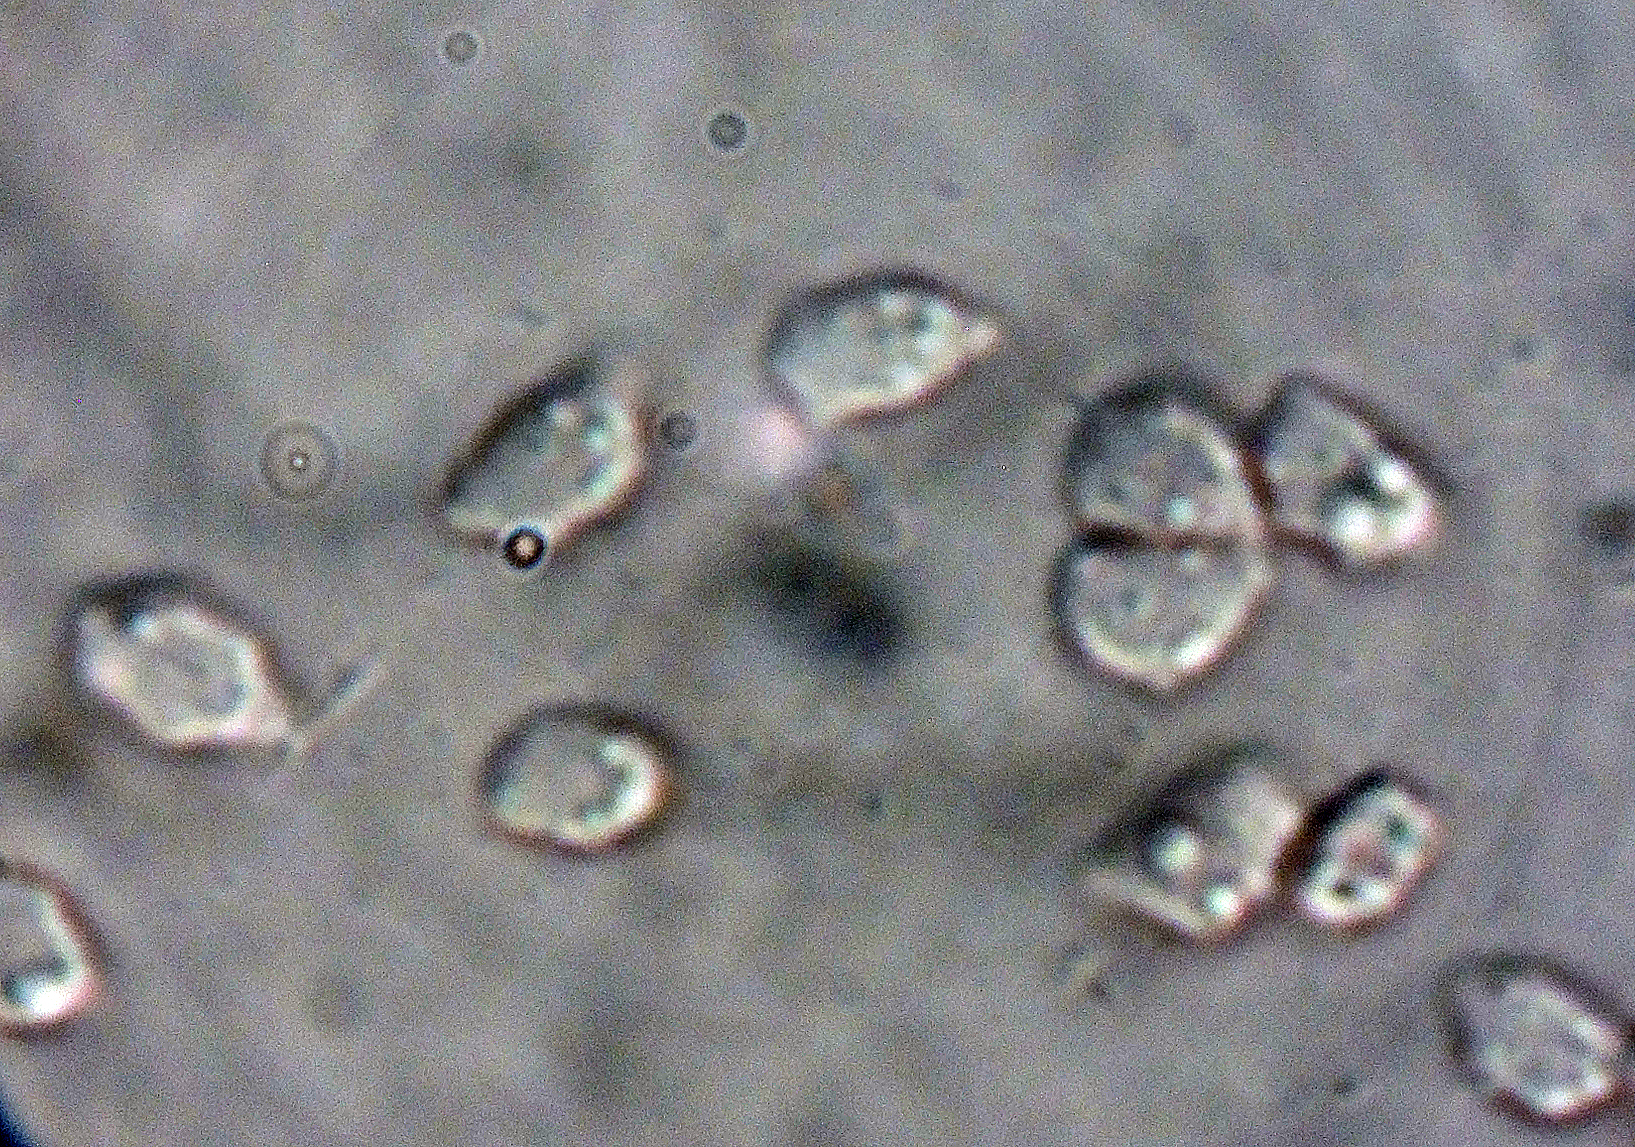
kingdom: Fungi
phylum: Basidiomycota
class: Agaricomycetes
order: Russulales
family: Xenasmataceae
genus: Xenasmatella
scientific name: Xenasmatella christiansenii
